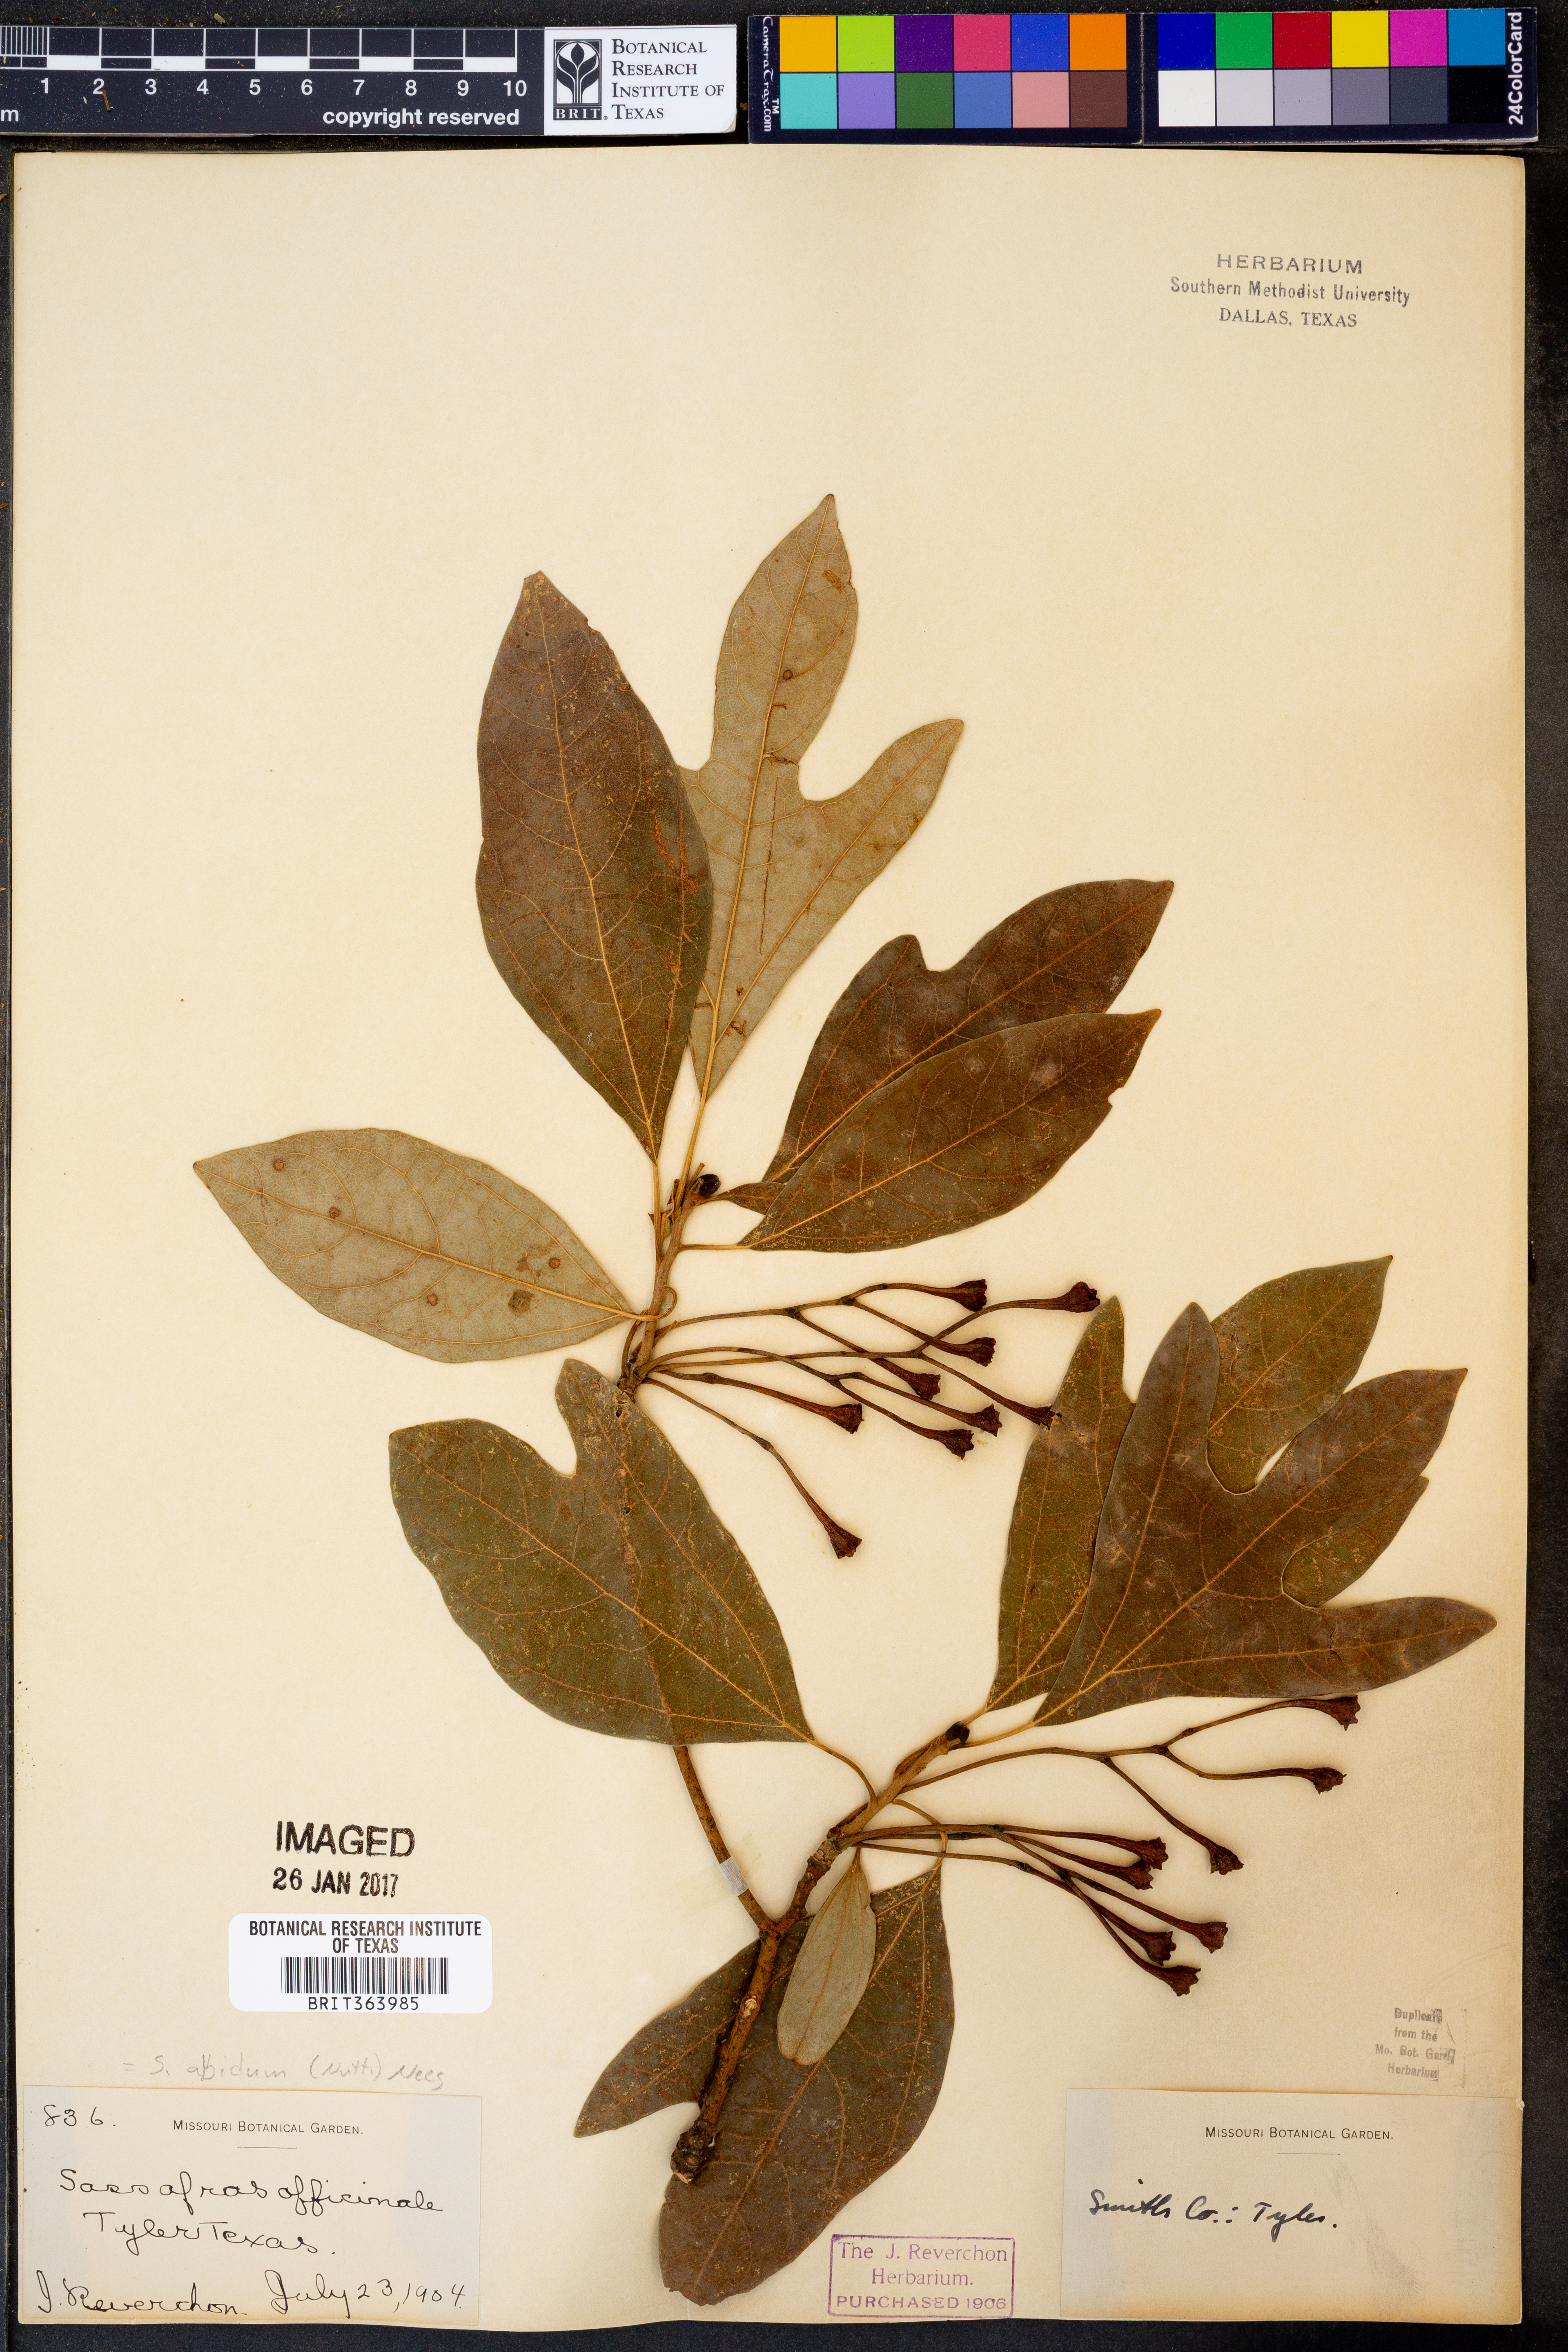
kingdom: Plantae
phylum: Tracheophyta
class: Magnoliopsida
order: Laurales
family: Lauraceae
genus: Sassafras
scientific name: Sassafras albidum
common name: Sassafras
